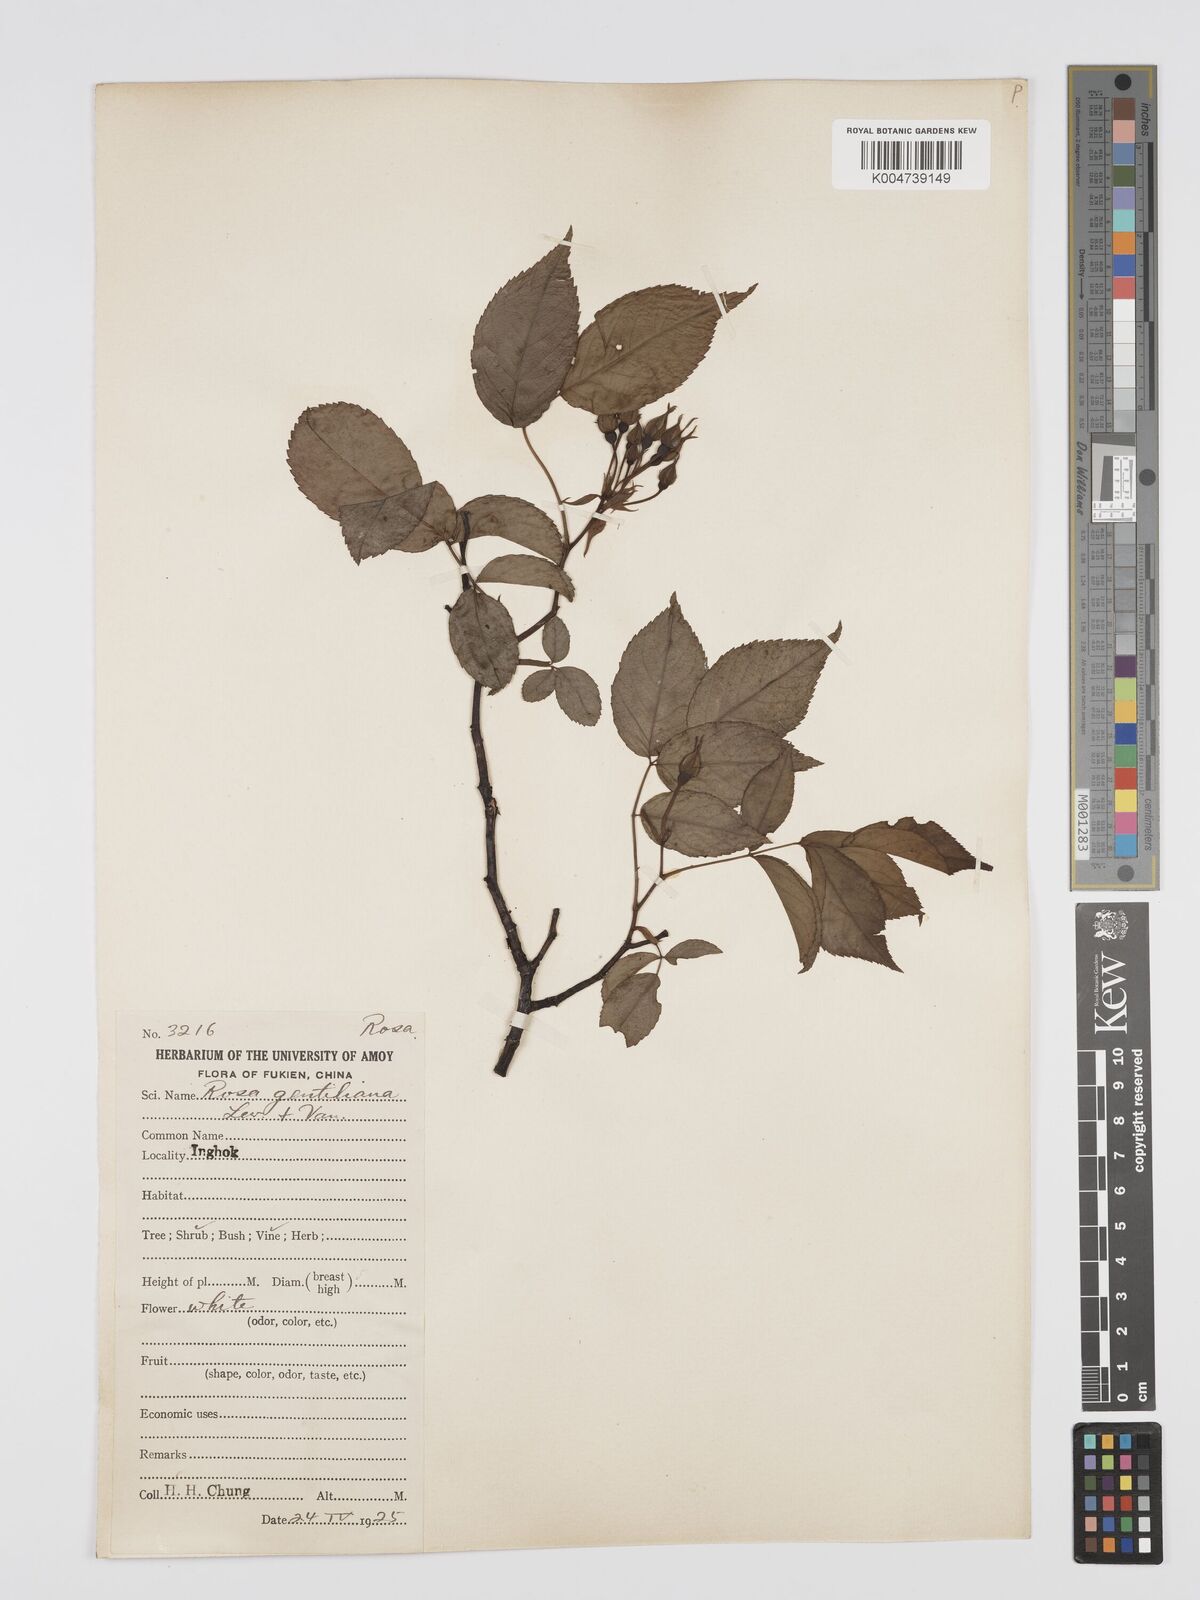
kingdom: Plantae
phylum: Tracheophyta
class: Magnoliopsida
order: Rosales
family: Rosaceae
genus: Rosa
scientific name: Rosa henryi
